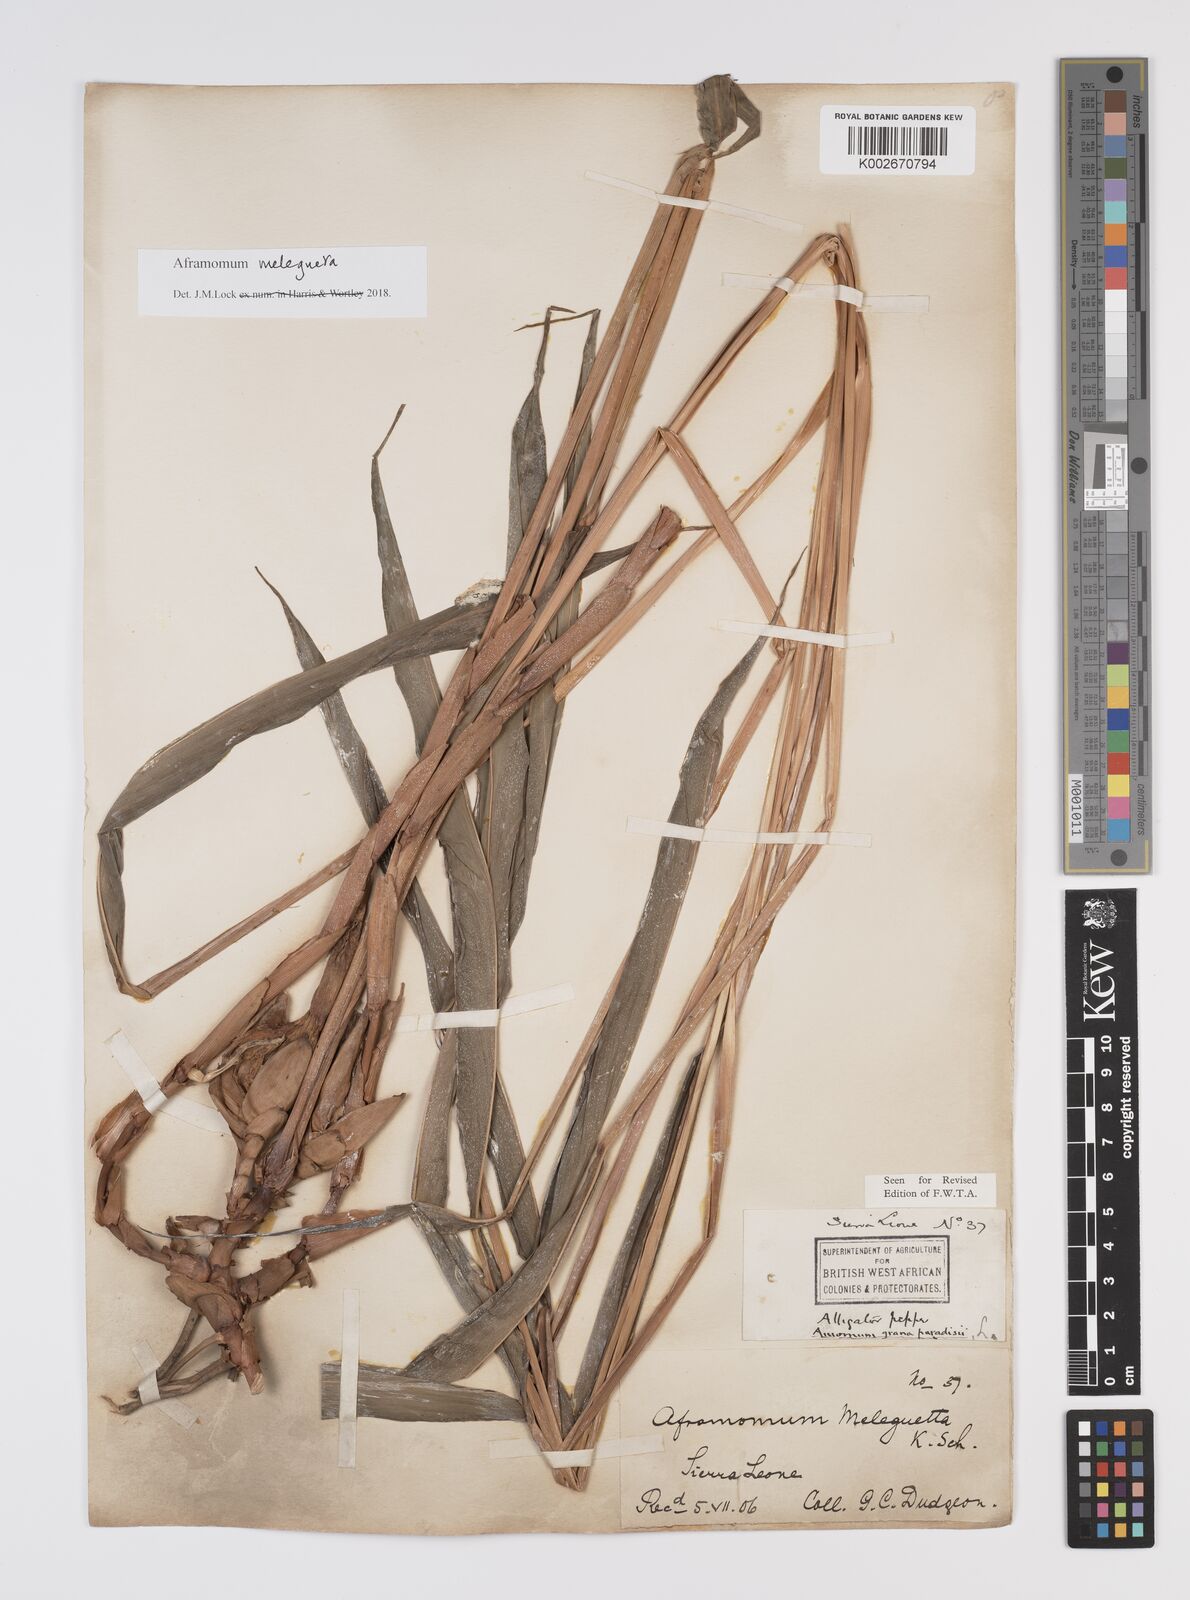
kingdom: Plantae
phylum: Tracheophyta
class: Liliopsida
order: Zingiberales
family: Zingiberaceae
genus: Aframomum
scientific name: Aframomum melegueta
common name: Grains of paradise
